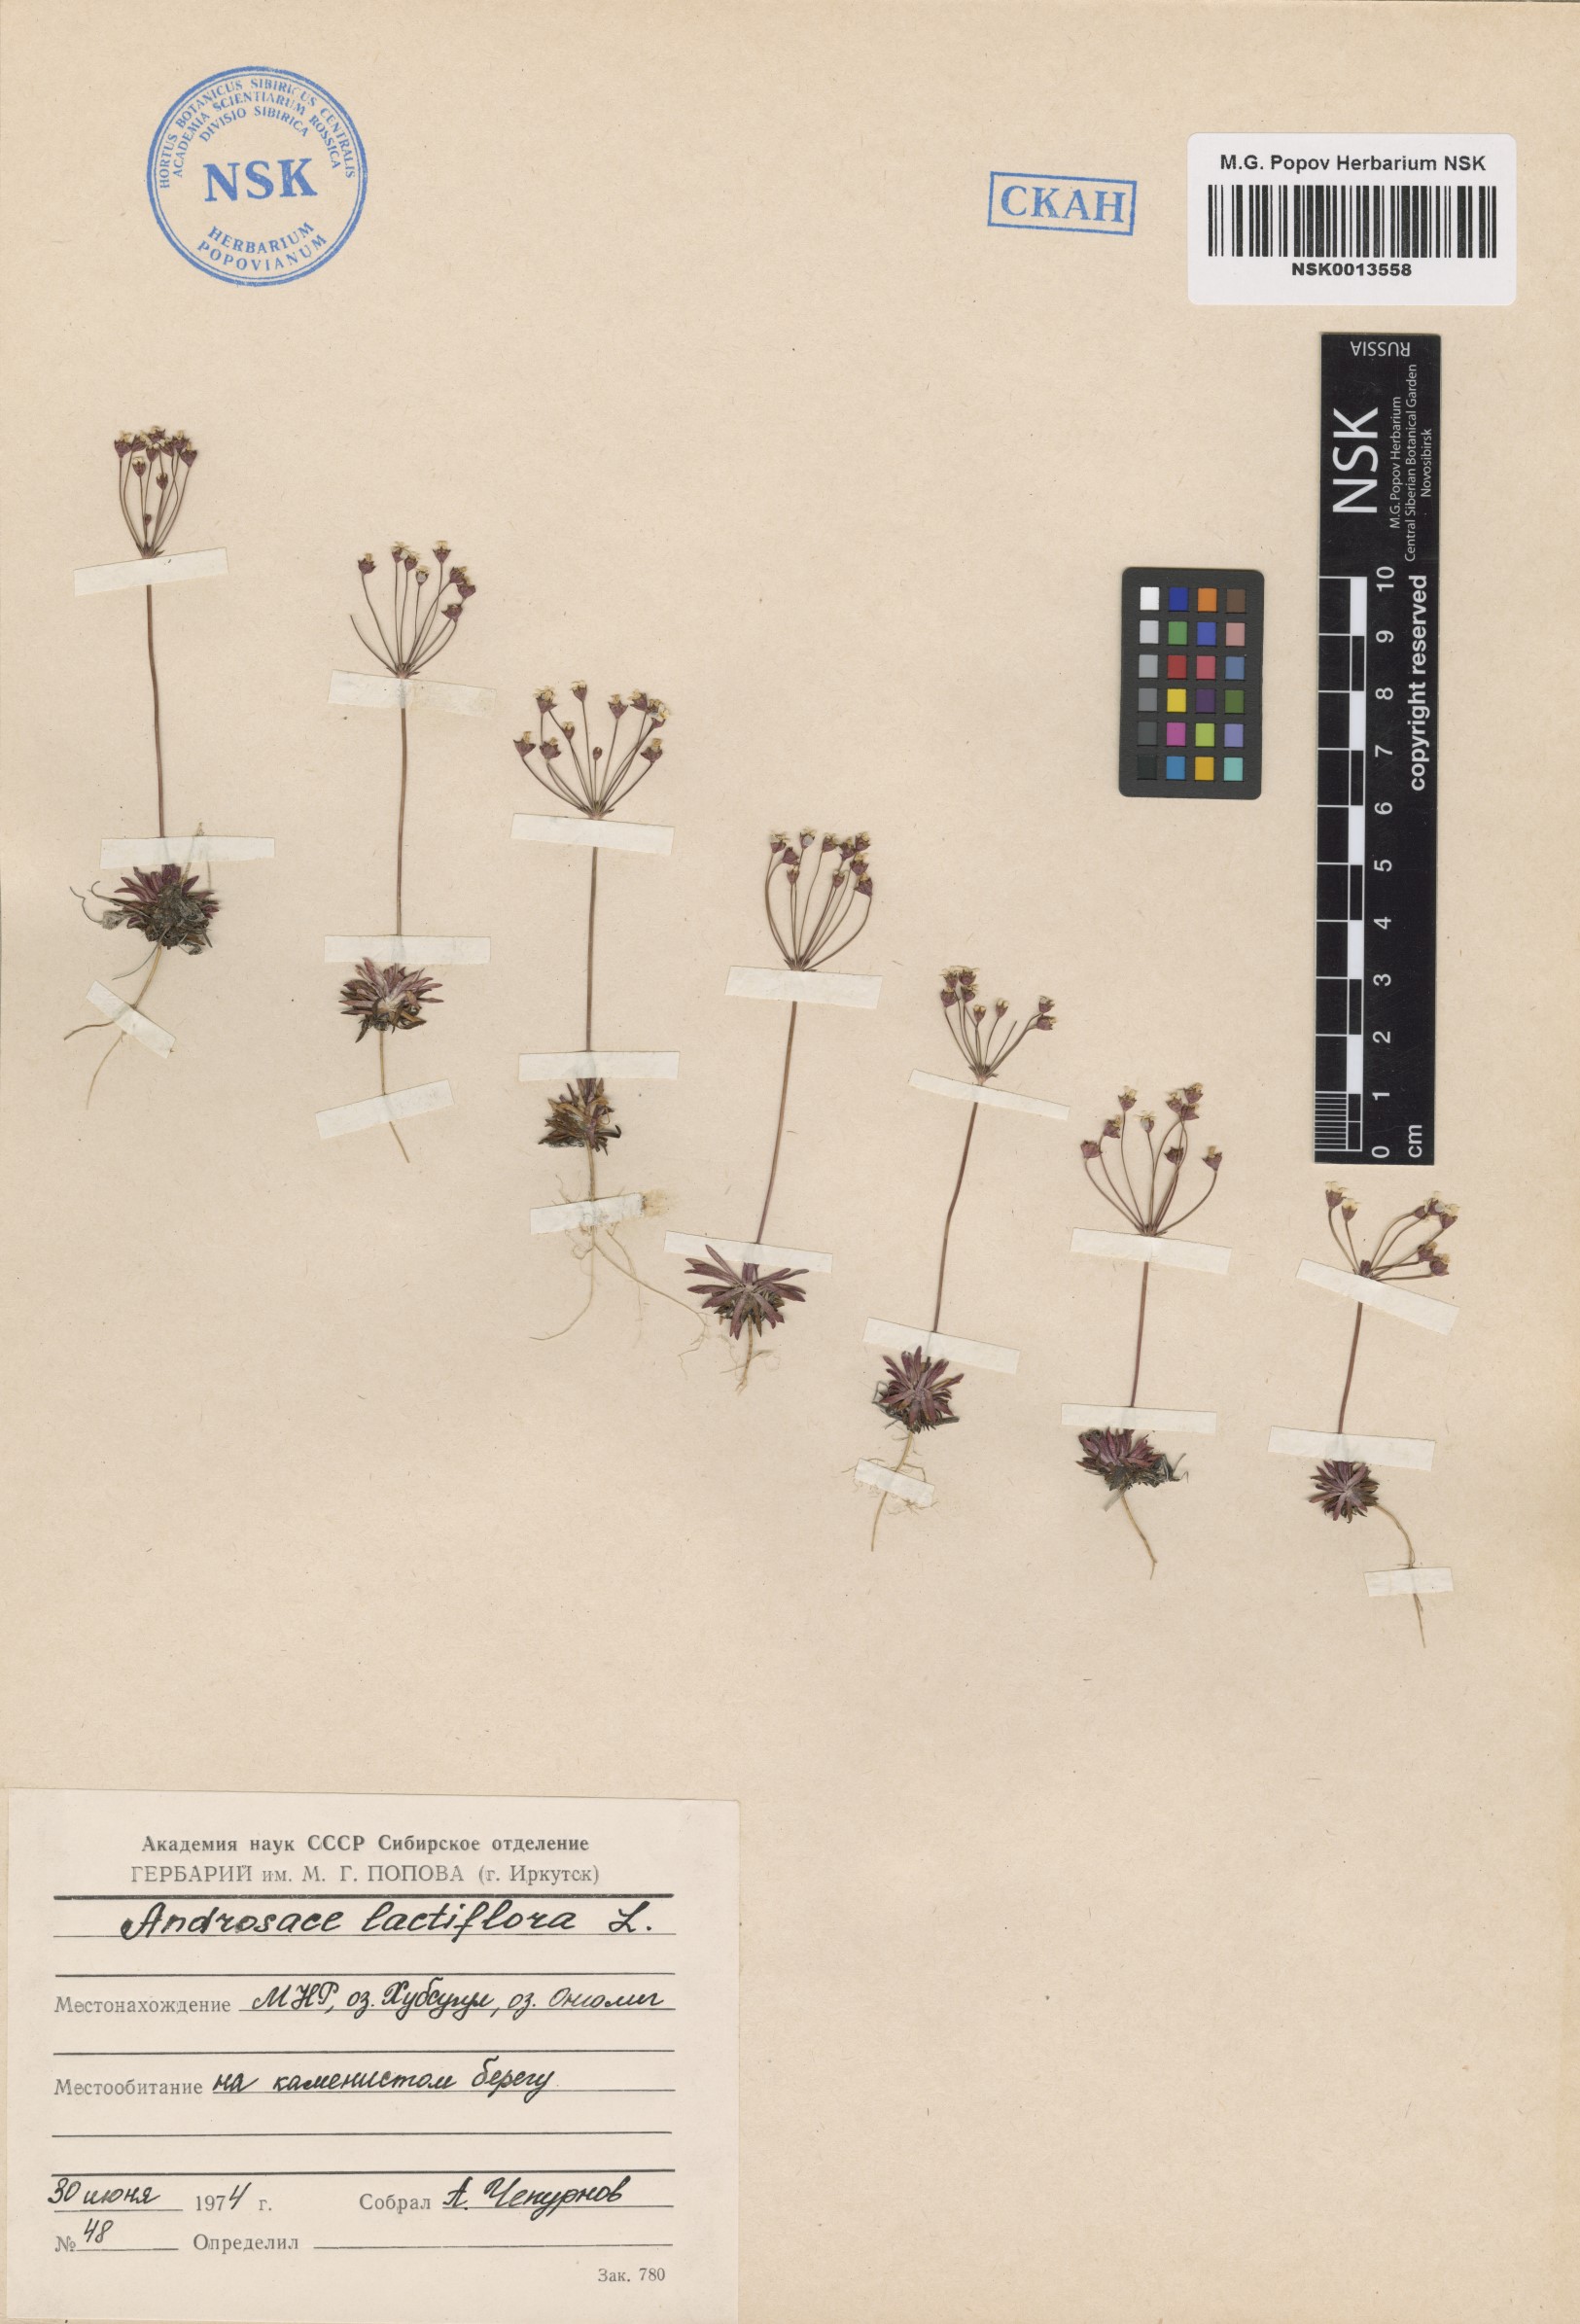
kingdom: Plantae
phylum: Tracheophyta
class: Magnoliopsida
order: Ericales
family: Primulaceae
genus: Androsace
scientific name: Androsace lactiflora
